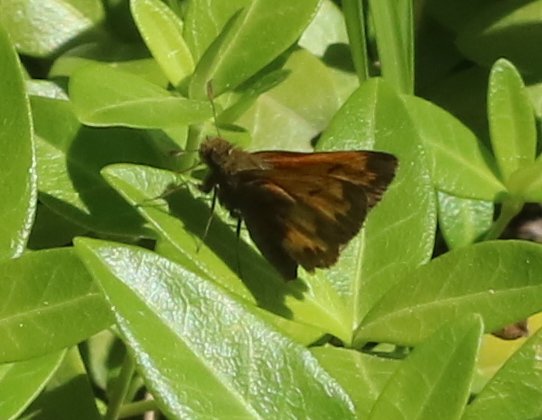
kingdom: Animalia
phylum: Arthropoda
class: Insecta
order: Lepidoptera
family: Hesperiidae
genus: Lon
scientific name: Lon hobomok
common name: Hobomok Skipper
